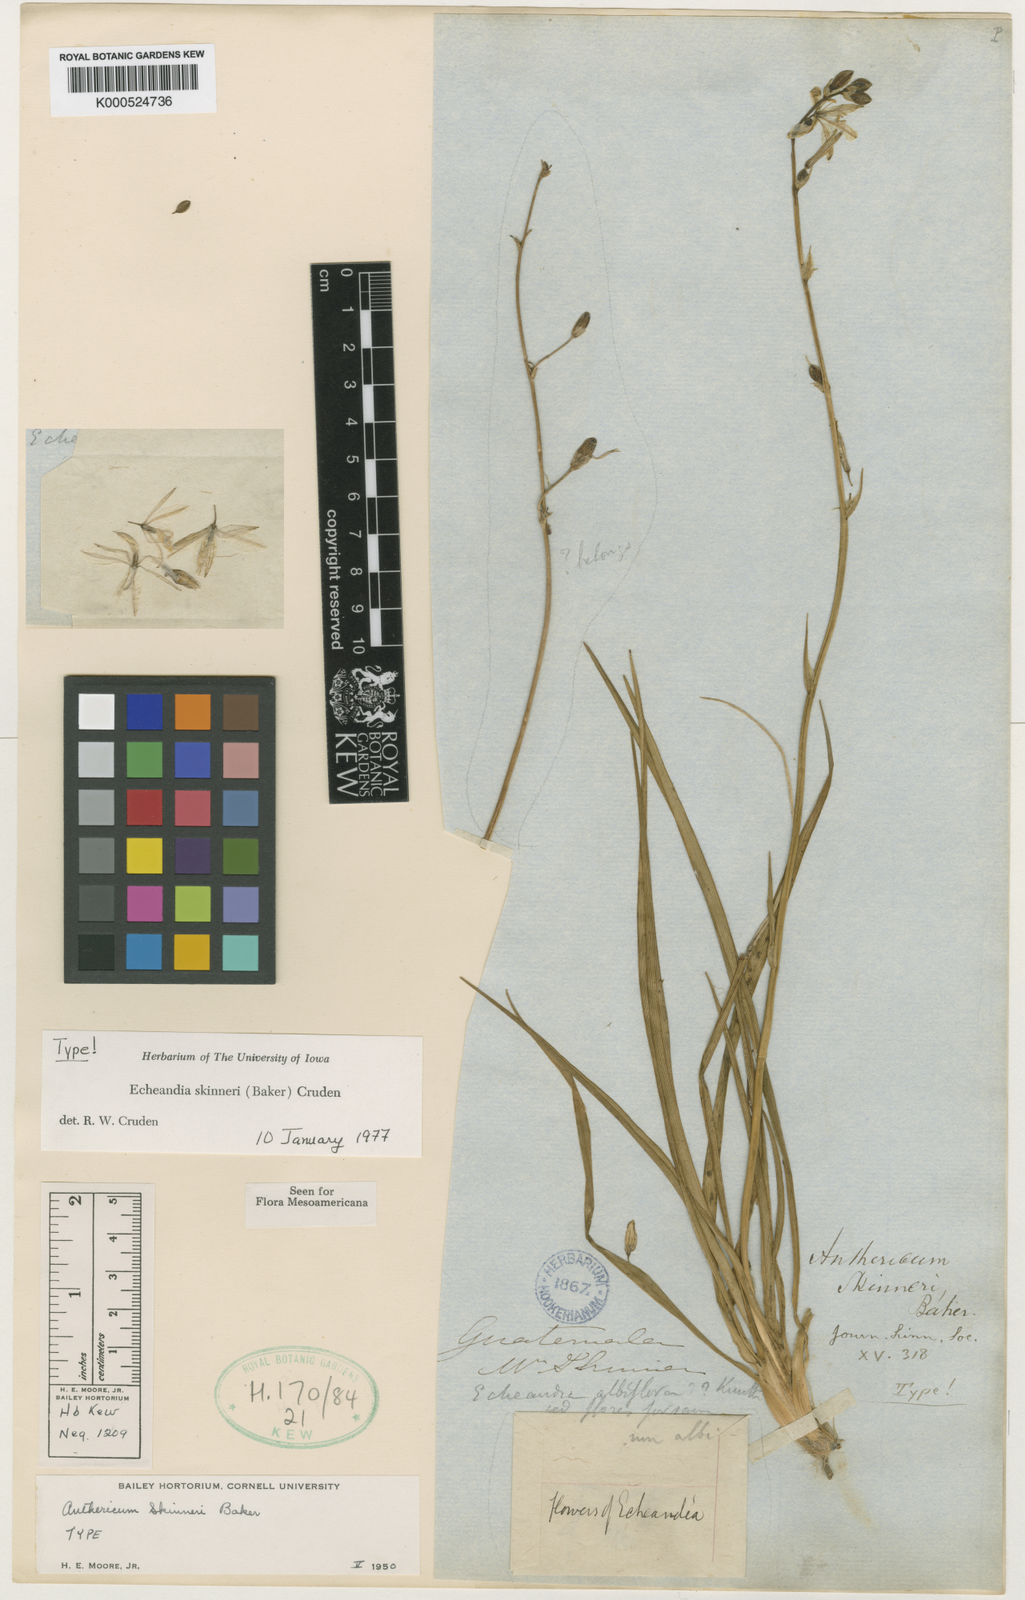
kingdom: Plantae
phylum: Tracheophyta
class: Liliopsida
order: Asparagales
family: Asparagaceae
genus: Echeandia
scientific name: Echeandia skinneri
